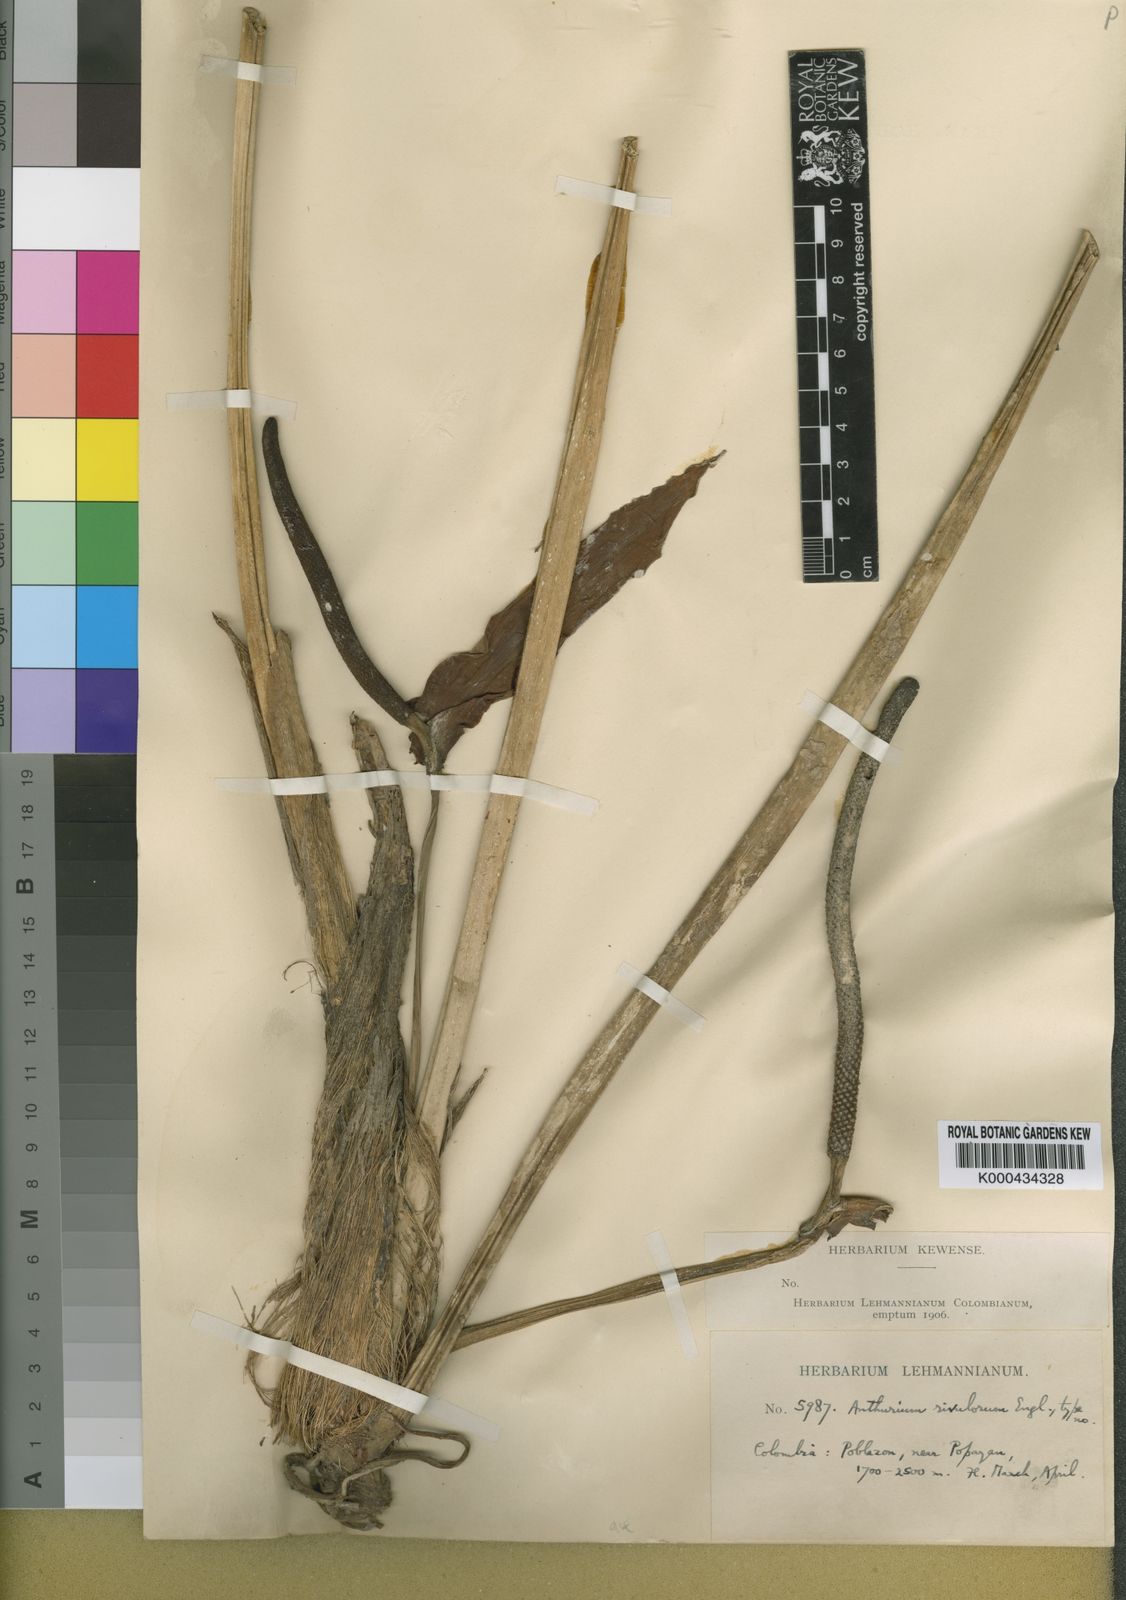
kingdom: Plantae
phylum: Tracheophyta
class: Liliopsida
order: Alismatales
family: Araceae
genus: Anthurium
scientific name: Anthurium sanguineum
